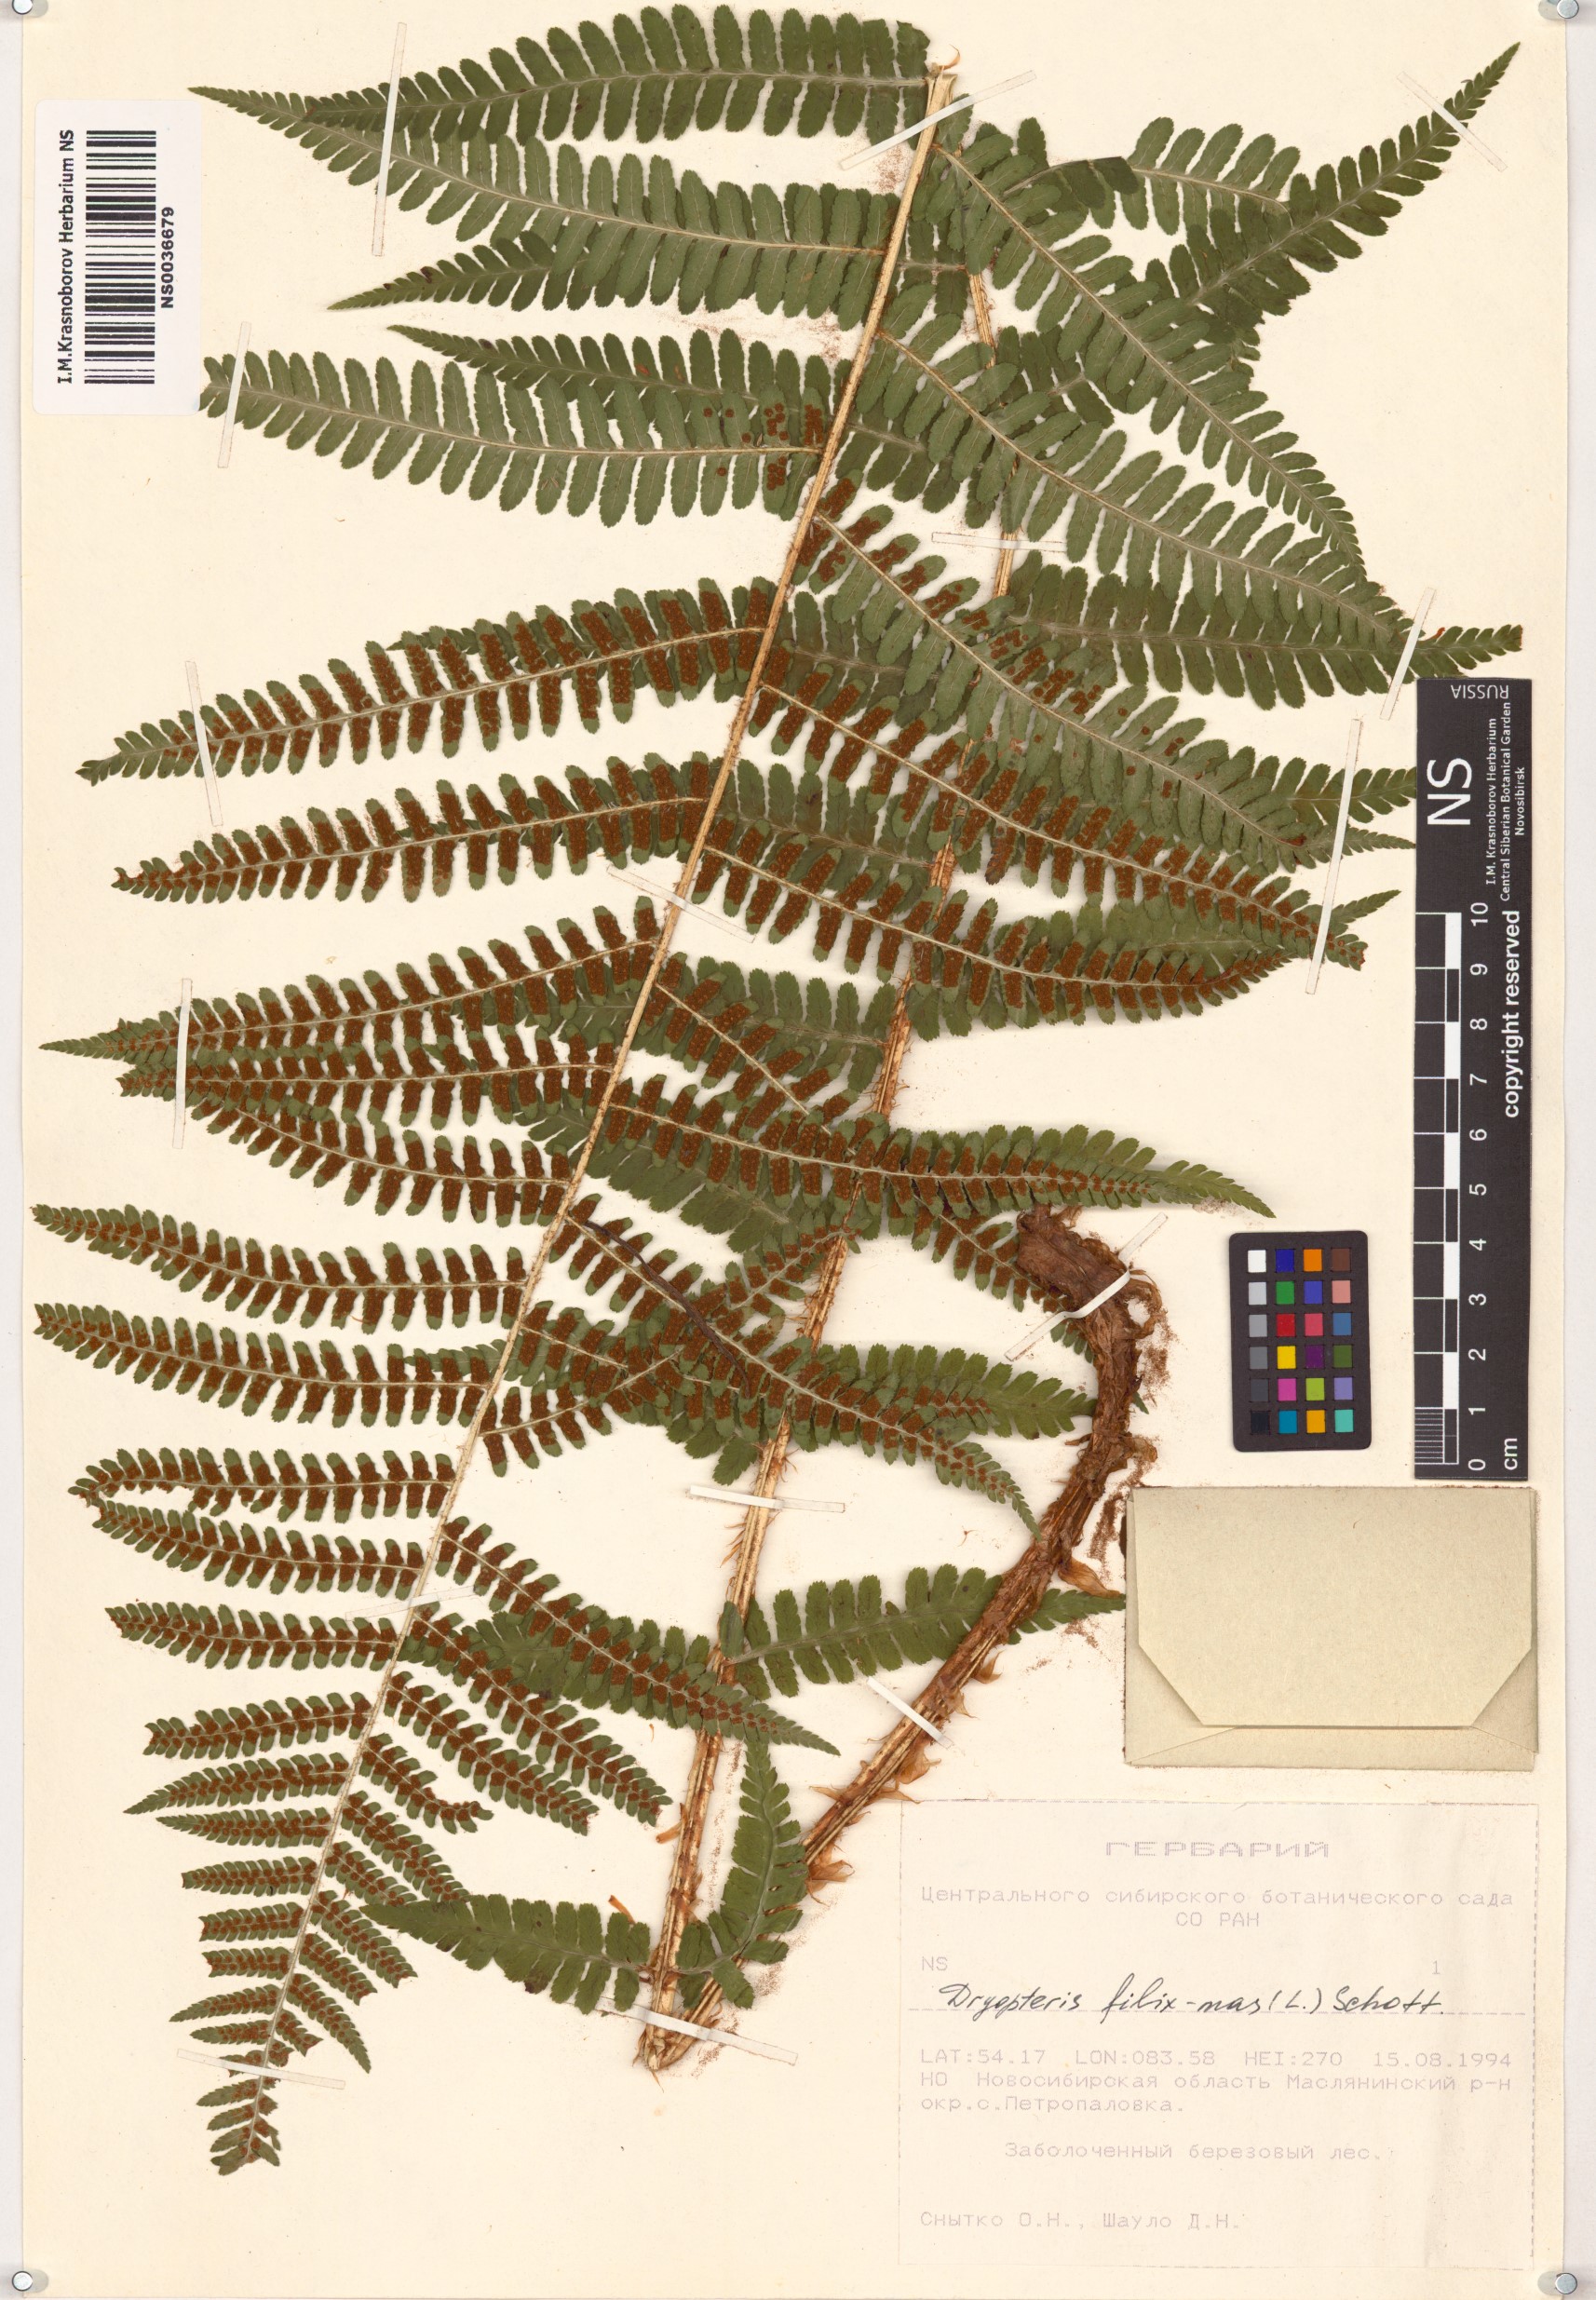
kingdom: Plantae
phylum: Tracheophyta
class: Polypodiopsida
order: Polypodiales
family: Dryopteridaceae
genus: Dryopteris
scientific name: Dryopteris filix-mas
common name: Male fern
